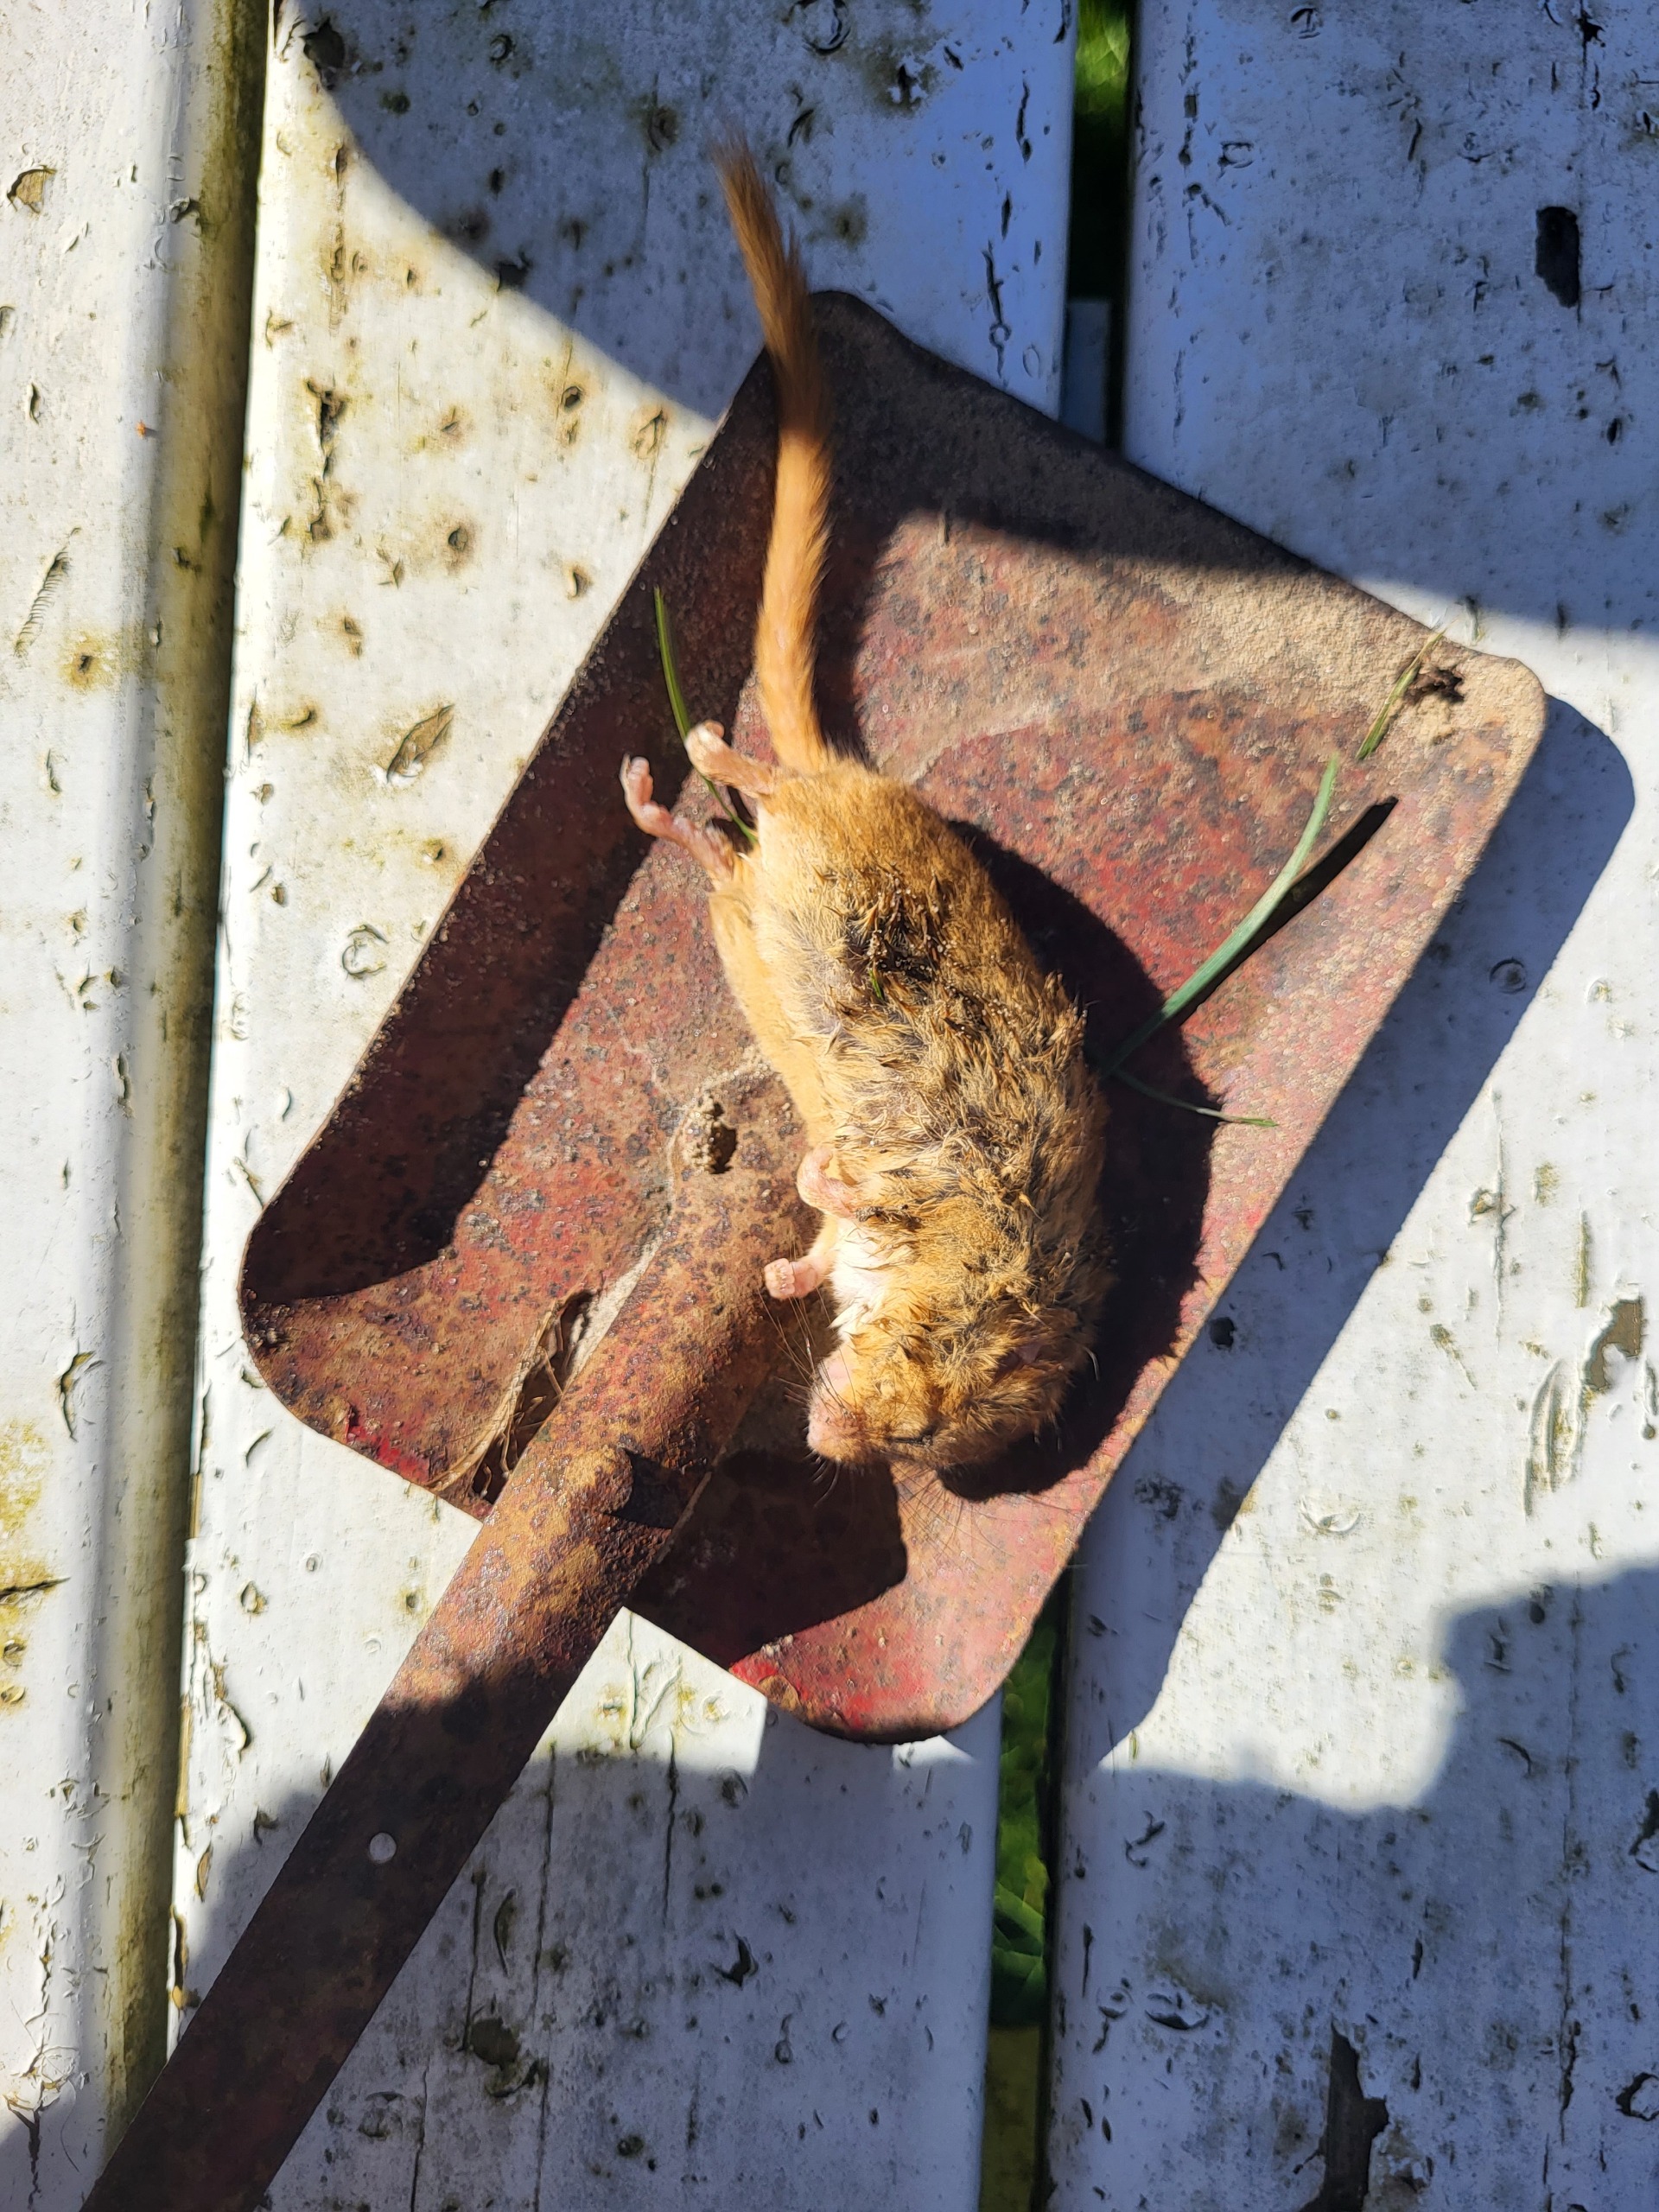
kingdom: Animalia
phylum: Chordata
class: Mammalia
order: Rodentia
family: Gliridae
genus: Muscardinus
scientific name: Muscardinus avellanarius
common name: Hasselmus
